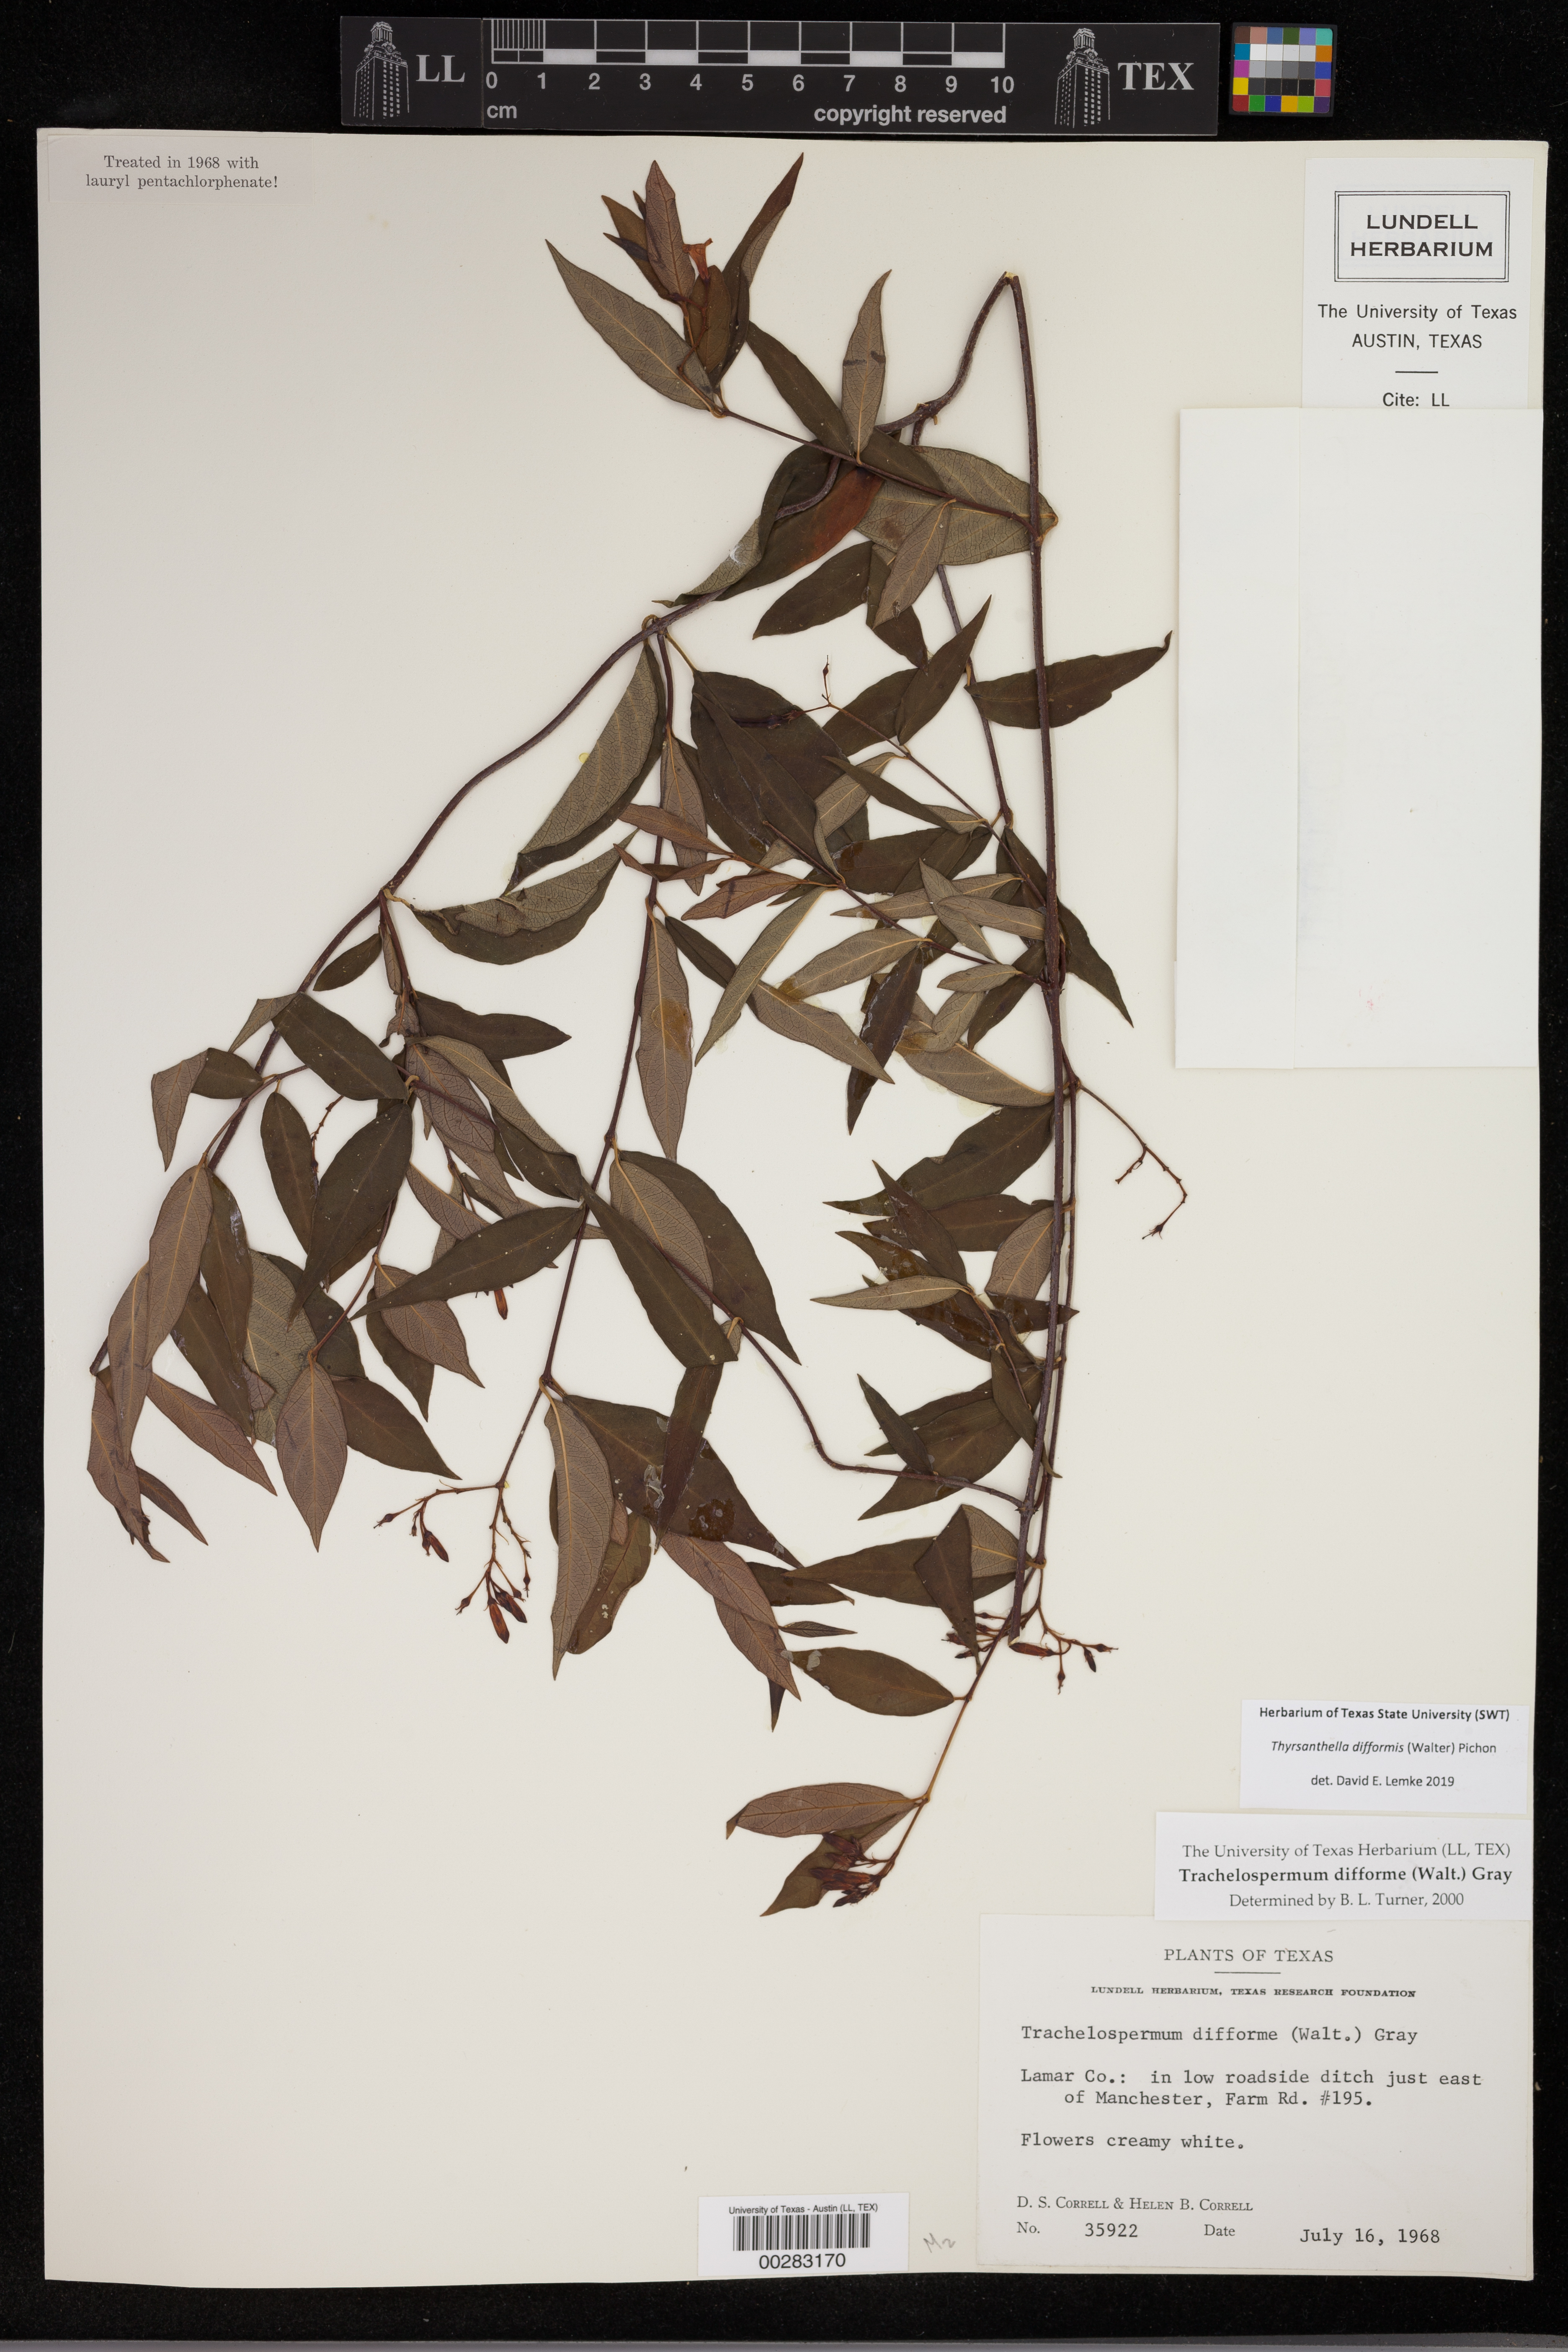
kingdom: Plantae
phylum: Tracheophyta
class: Magnoliopsida
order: Gentianales
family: Apocynaceae
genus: Thyrsanthella
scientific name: Thyrsanthella difformis
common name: Climbing dogbane
